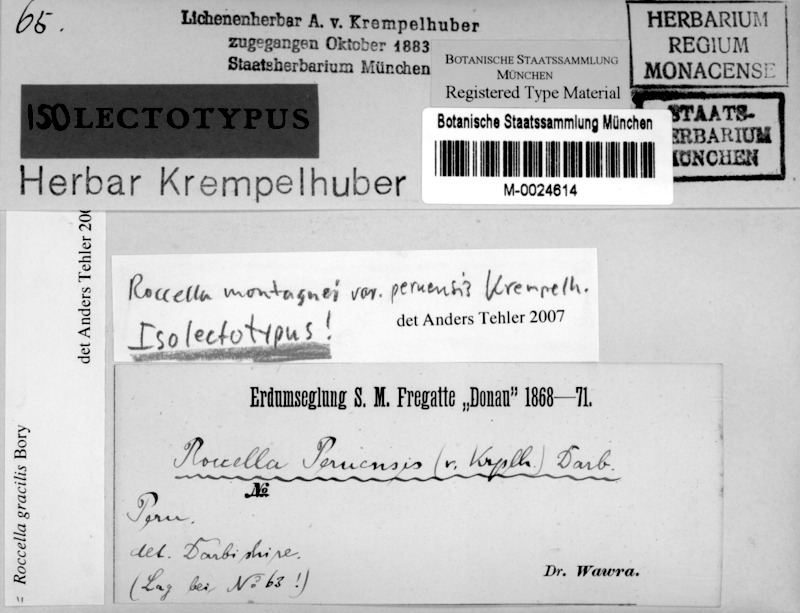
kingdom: Fungi
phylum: Ascomycota
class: Arthoniomycetes
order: Arthoniales
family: Roccellaceae
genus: Roccella
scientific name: Roccella gracilis
